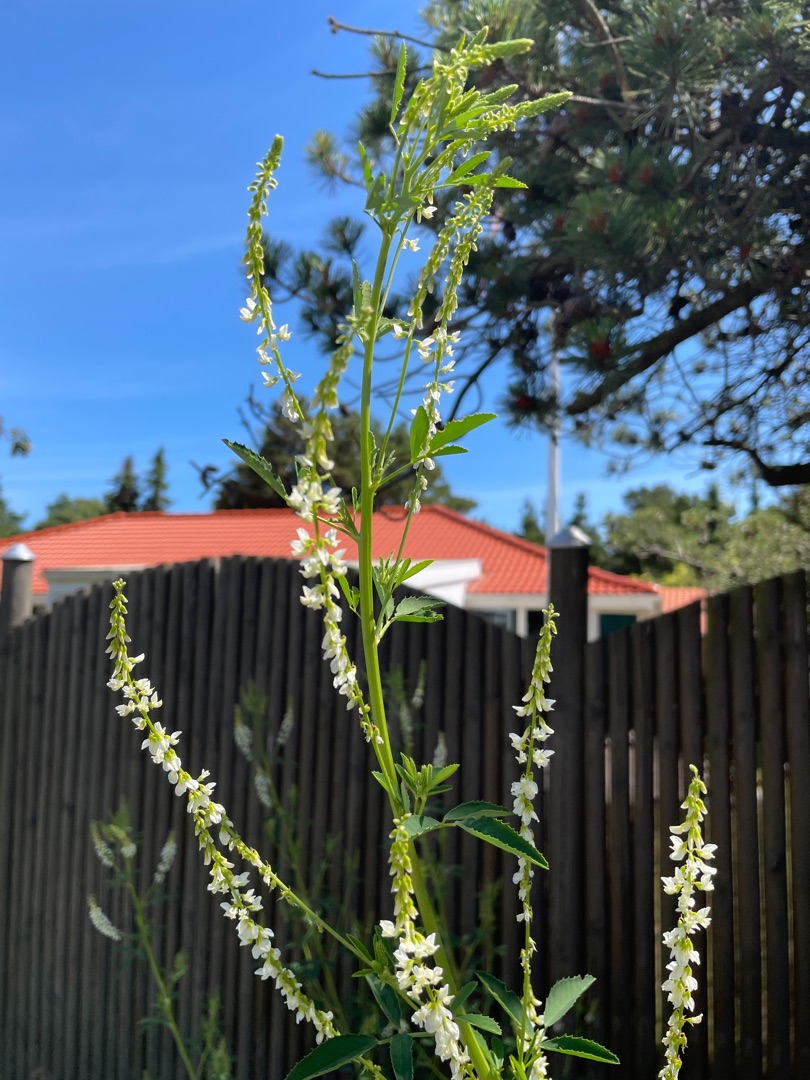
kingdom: Plantae
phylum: Tracheophyta
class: Magnoliopsida
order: Fabales
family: Fabaceae
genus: Melilotus
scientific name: Melilotus albus
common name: Hvid stenkløver
